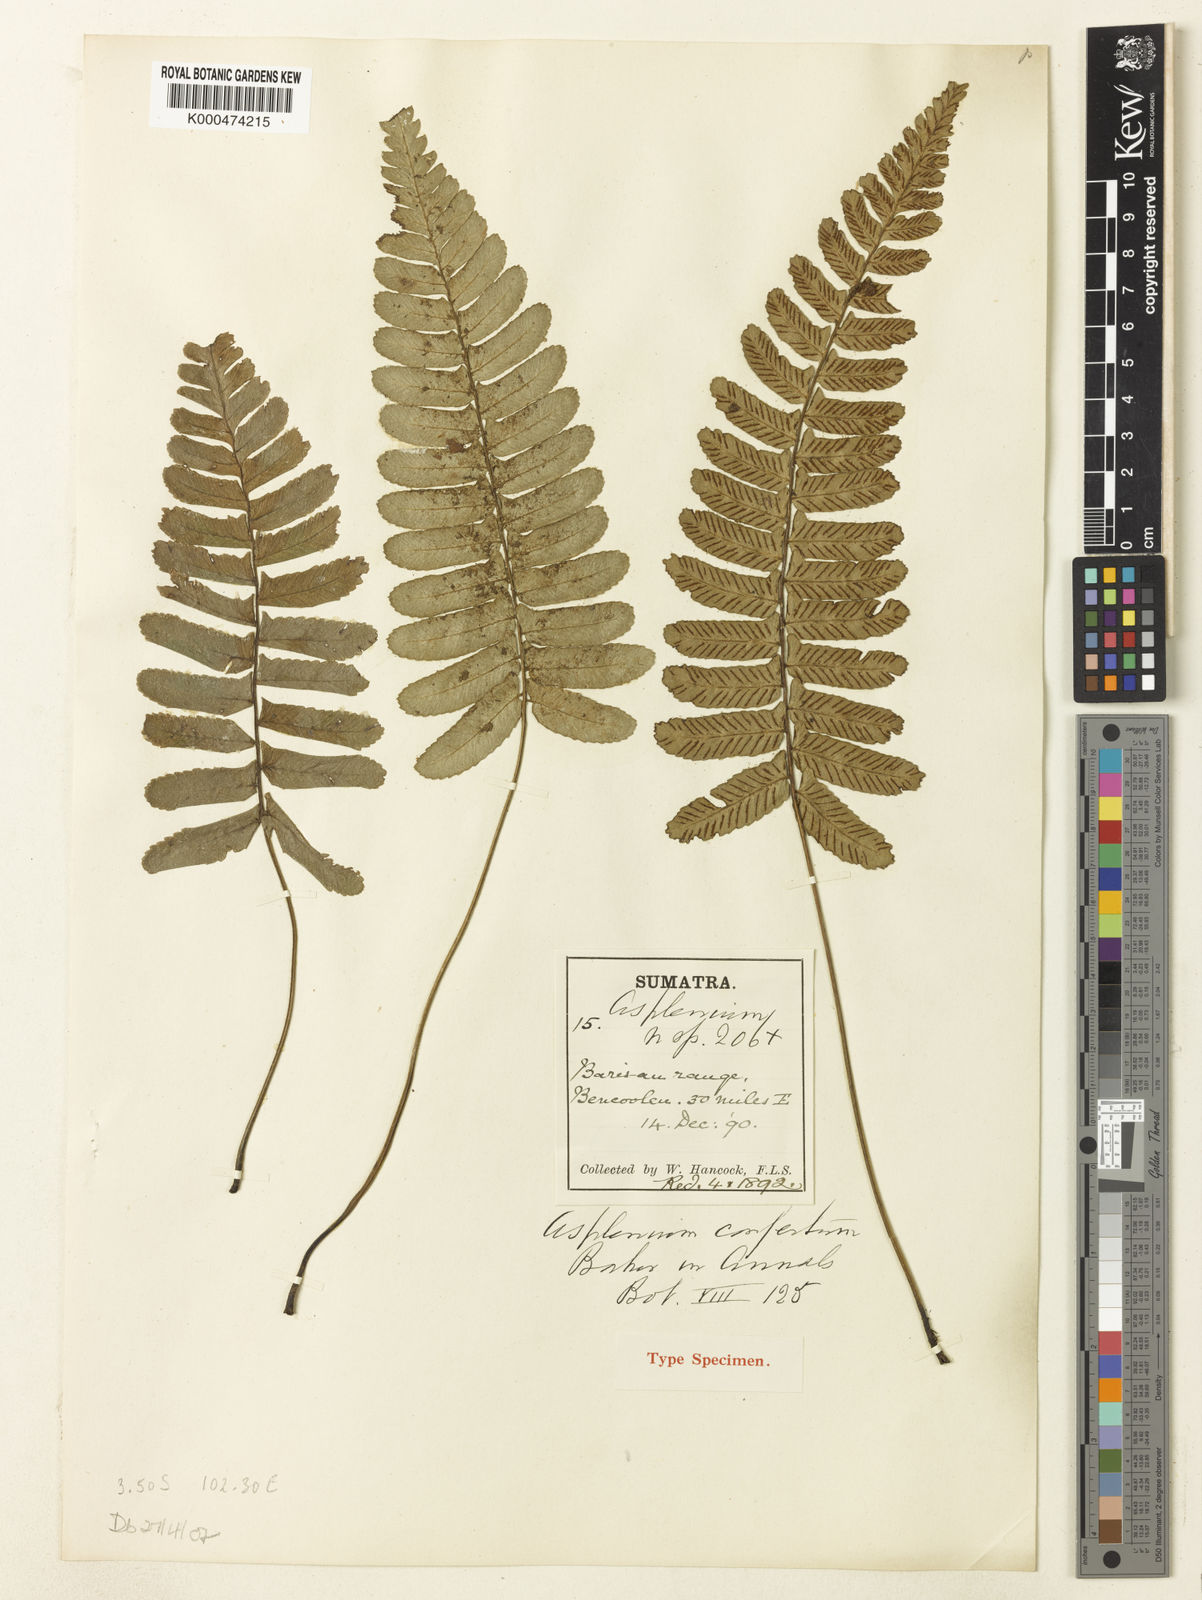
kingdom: Plantae
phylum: Tracheophyta
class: Polypodiopsida
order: Polypodiales
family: Athyriaceae
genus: Diplazium
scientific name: Diplazium pallidum
